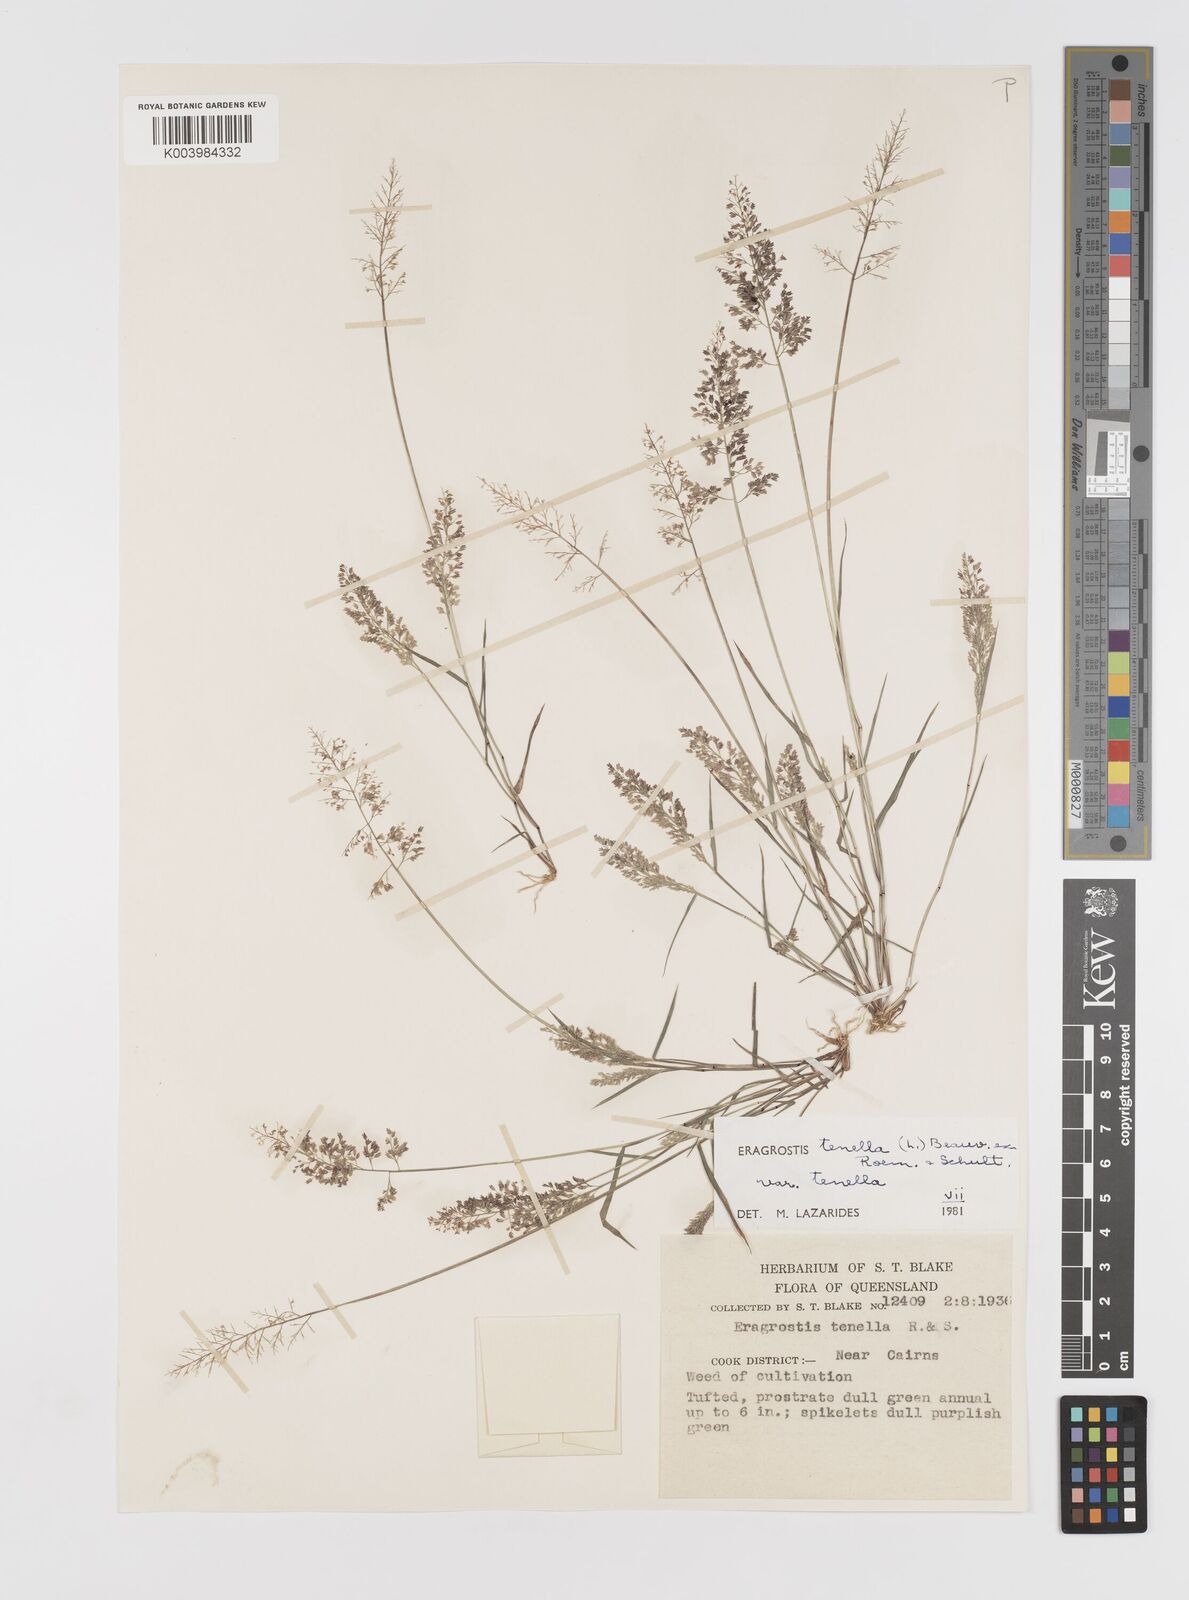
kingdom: Plantae
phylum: Tracheophyta
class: Liliopsida
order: Poales
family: Poaceae
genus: Eragrostis
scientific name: Eragrostis tenella
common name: Japanese lovegrass
